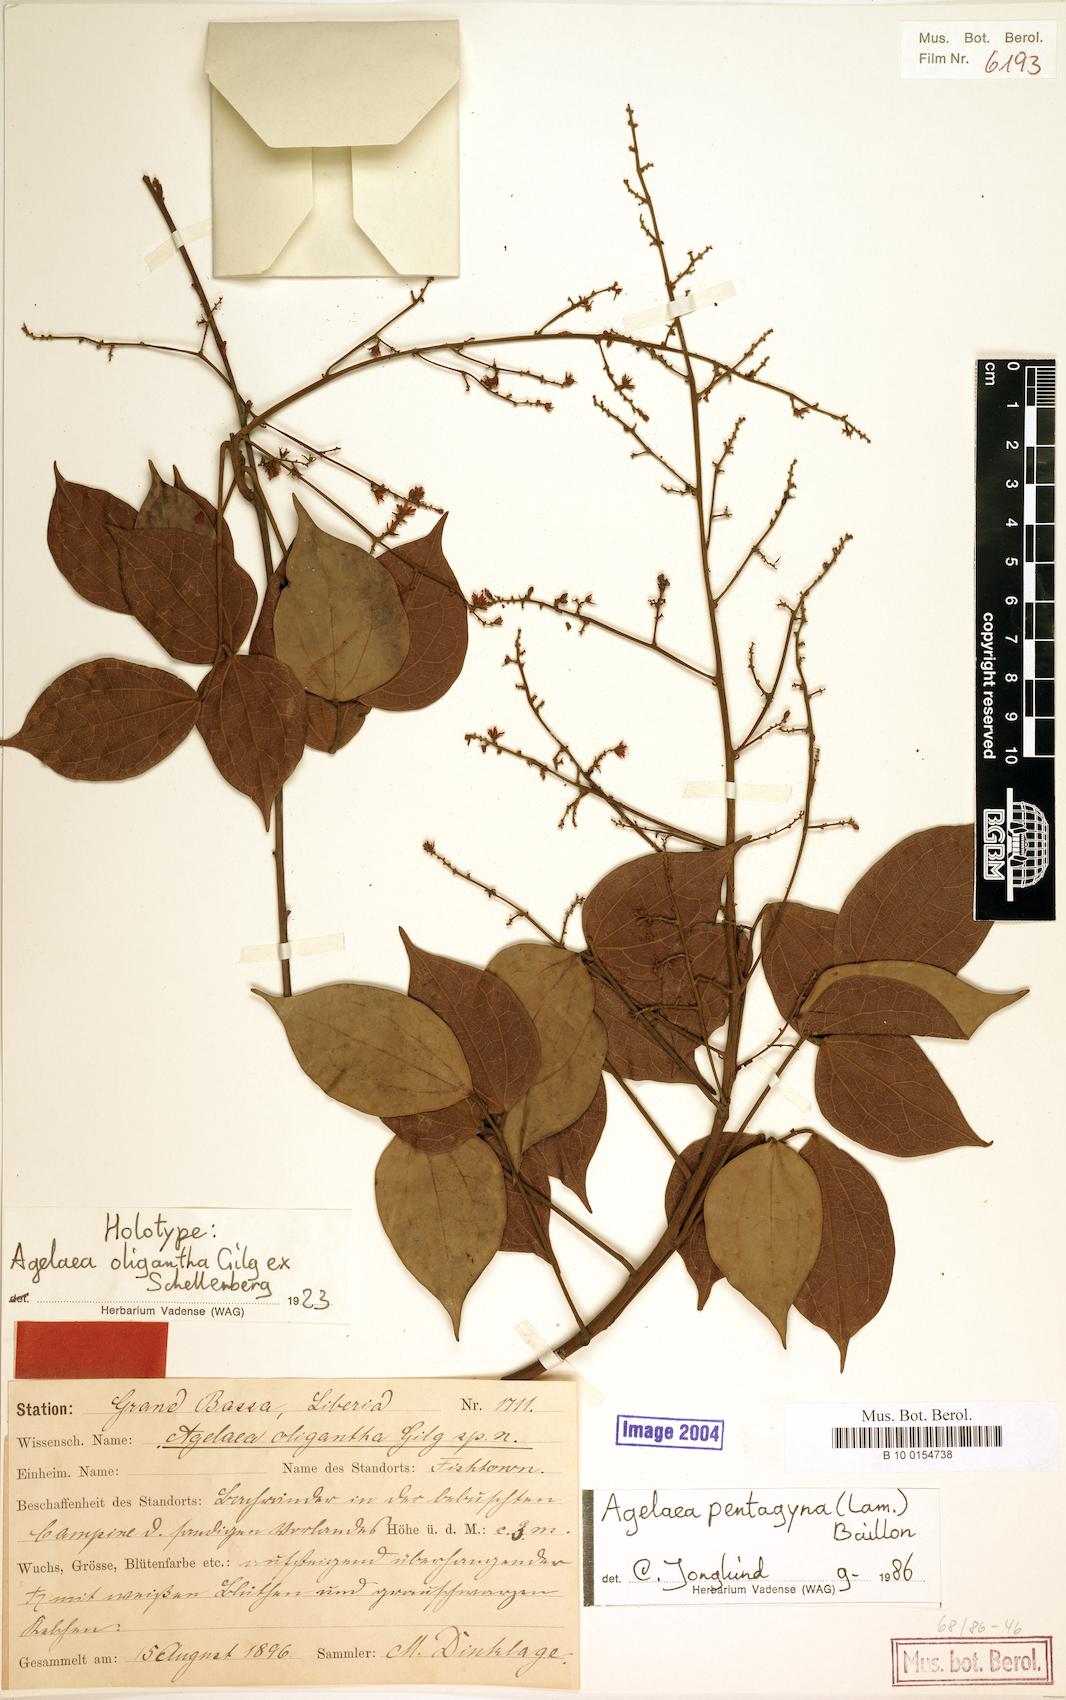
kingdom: Plantae
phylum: Tracheophyta
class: Magnoliopsida
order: Oxalidales
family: Connaraceae
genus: Agelaea
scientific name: Agelaea pentagyna
